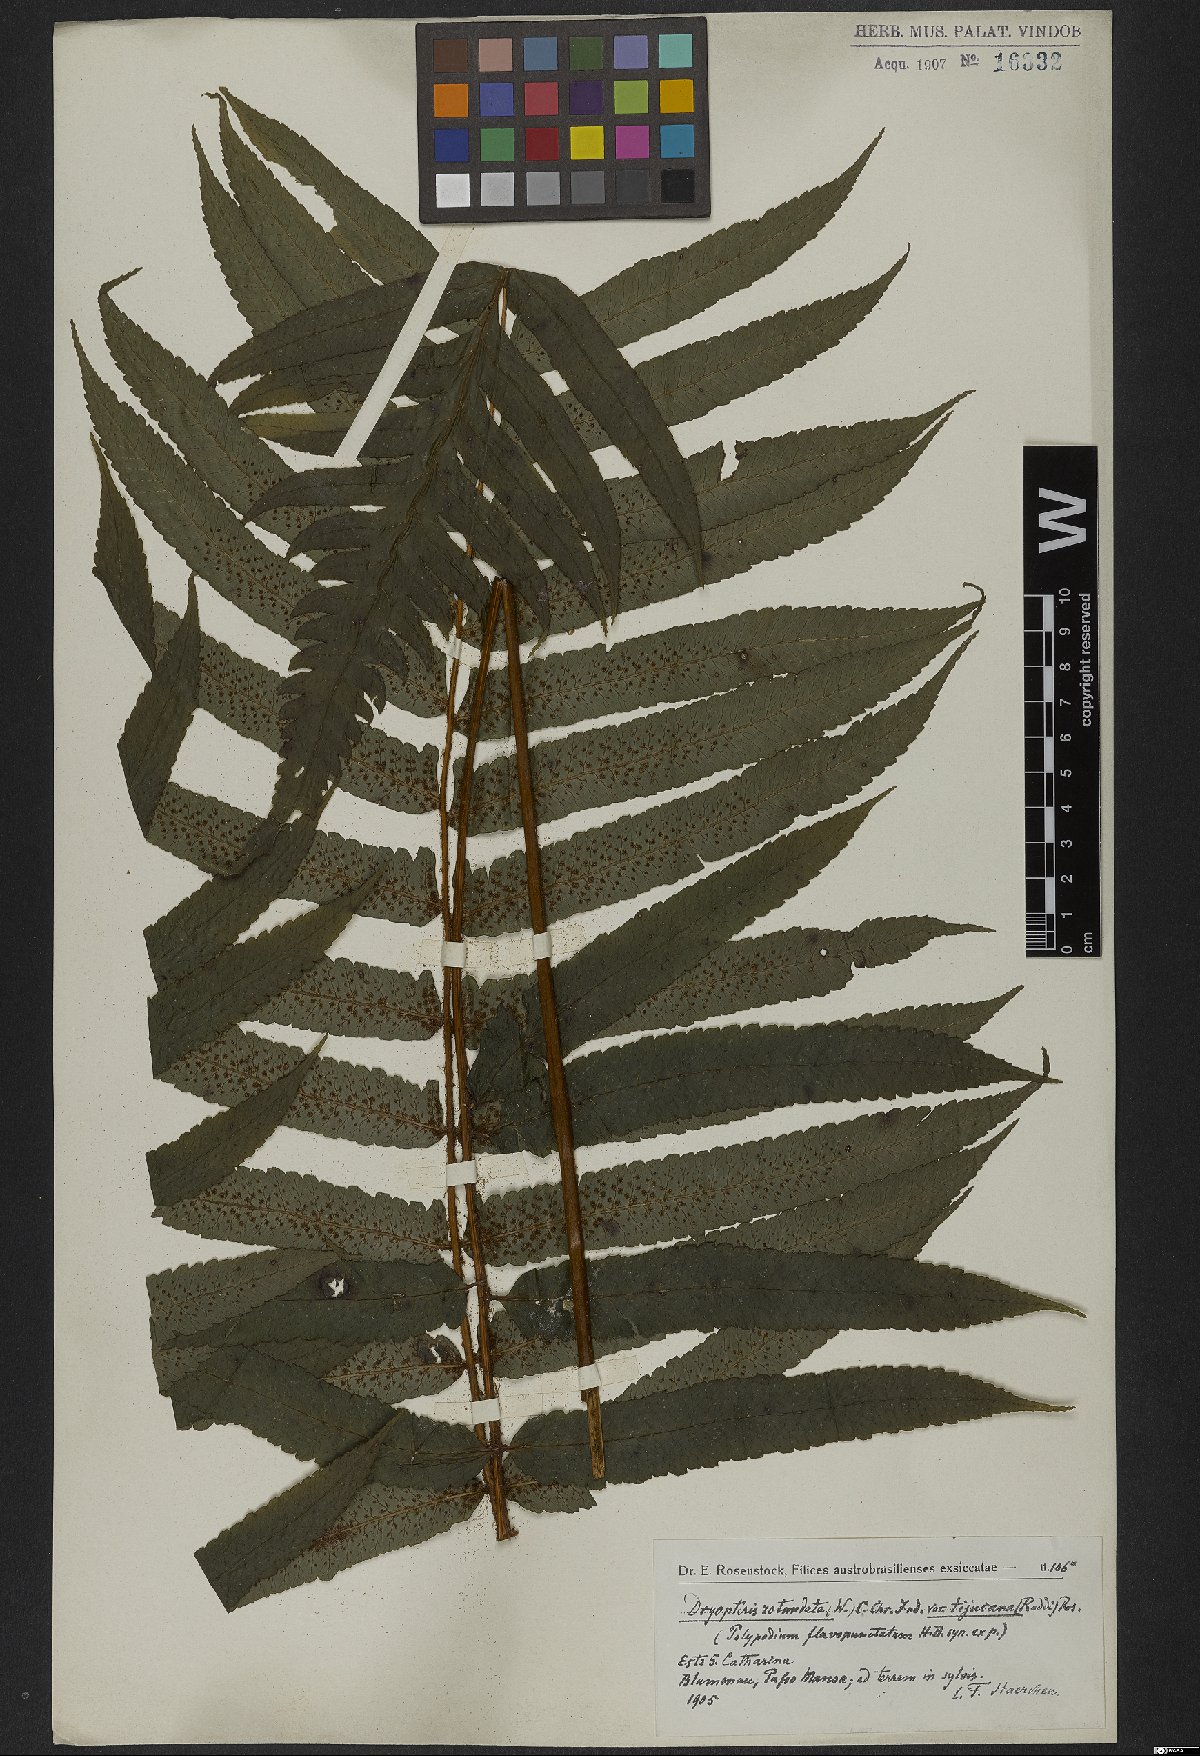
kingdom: Plantae
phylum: Tracheophyta
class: Polypodiopsida
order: Polypodiales
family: Dryopteridaceae
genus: Stigmatopteris
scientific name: Stigmatopteris rotundata
